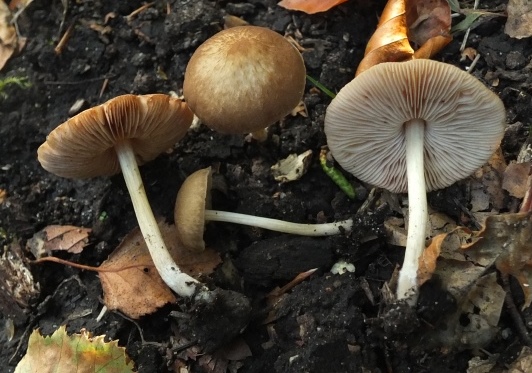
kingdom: Fungi
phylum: Basidiomycota
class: Agaricomycetes
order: Agaricales
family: Pluteaceae
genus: Pluteus
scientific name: Pluteus phlebophorus
